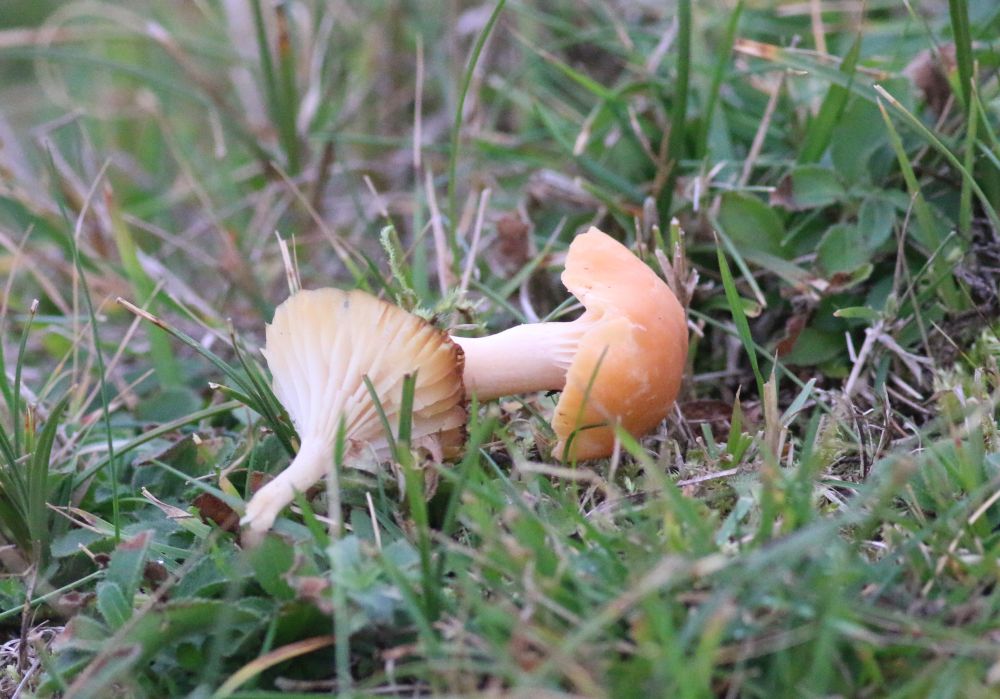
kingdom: Fungi
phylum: Basidiomycota
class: Agaricomycetes
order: Agaricales
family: Hygrophoraceae
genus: Cuphophyllus
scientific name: Cuphophyllus pratensis
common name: eng-vokshat
